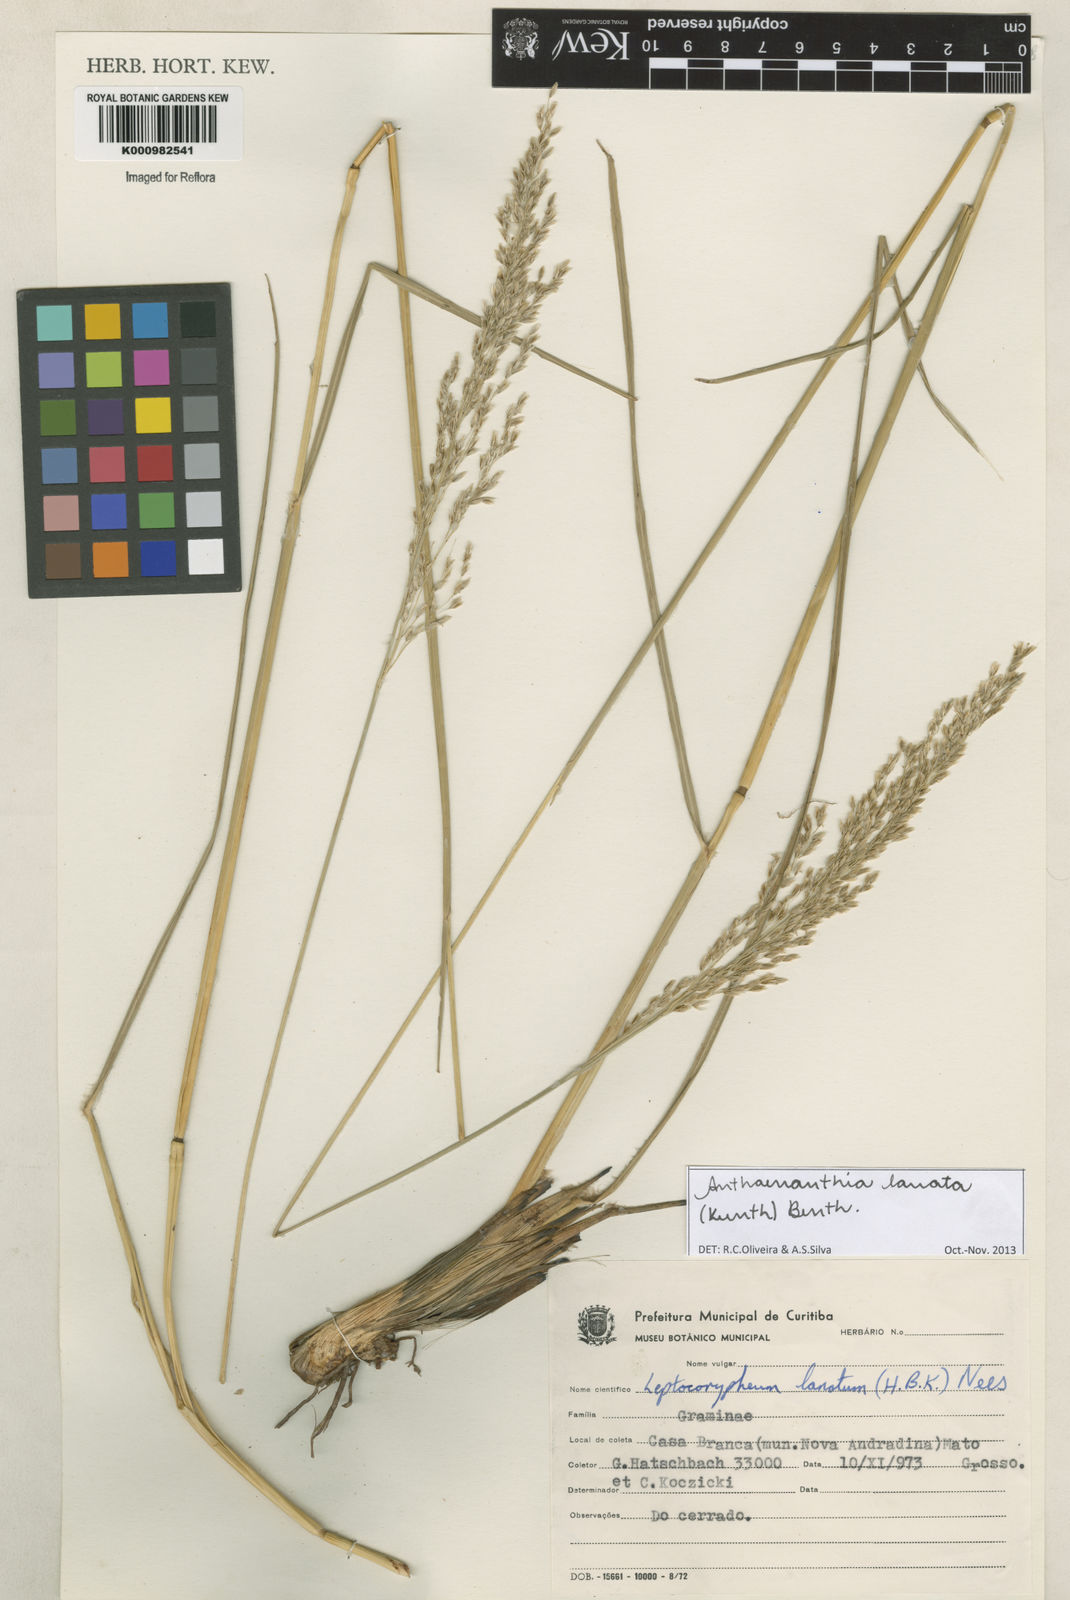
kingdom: Plantae
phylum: Tracheophyta
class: Liliopsida
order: Poales
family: Poaceae
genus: Anthenantia
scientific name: Anthenantia lanata
